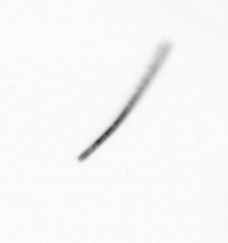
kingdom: Chromista
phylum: Ochrophyta
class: Bacillariophyceae
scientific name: Bacillariophyceae
